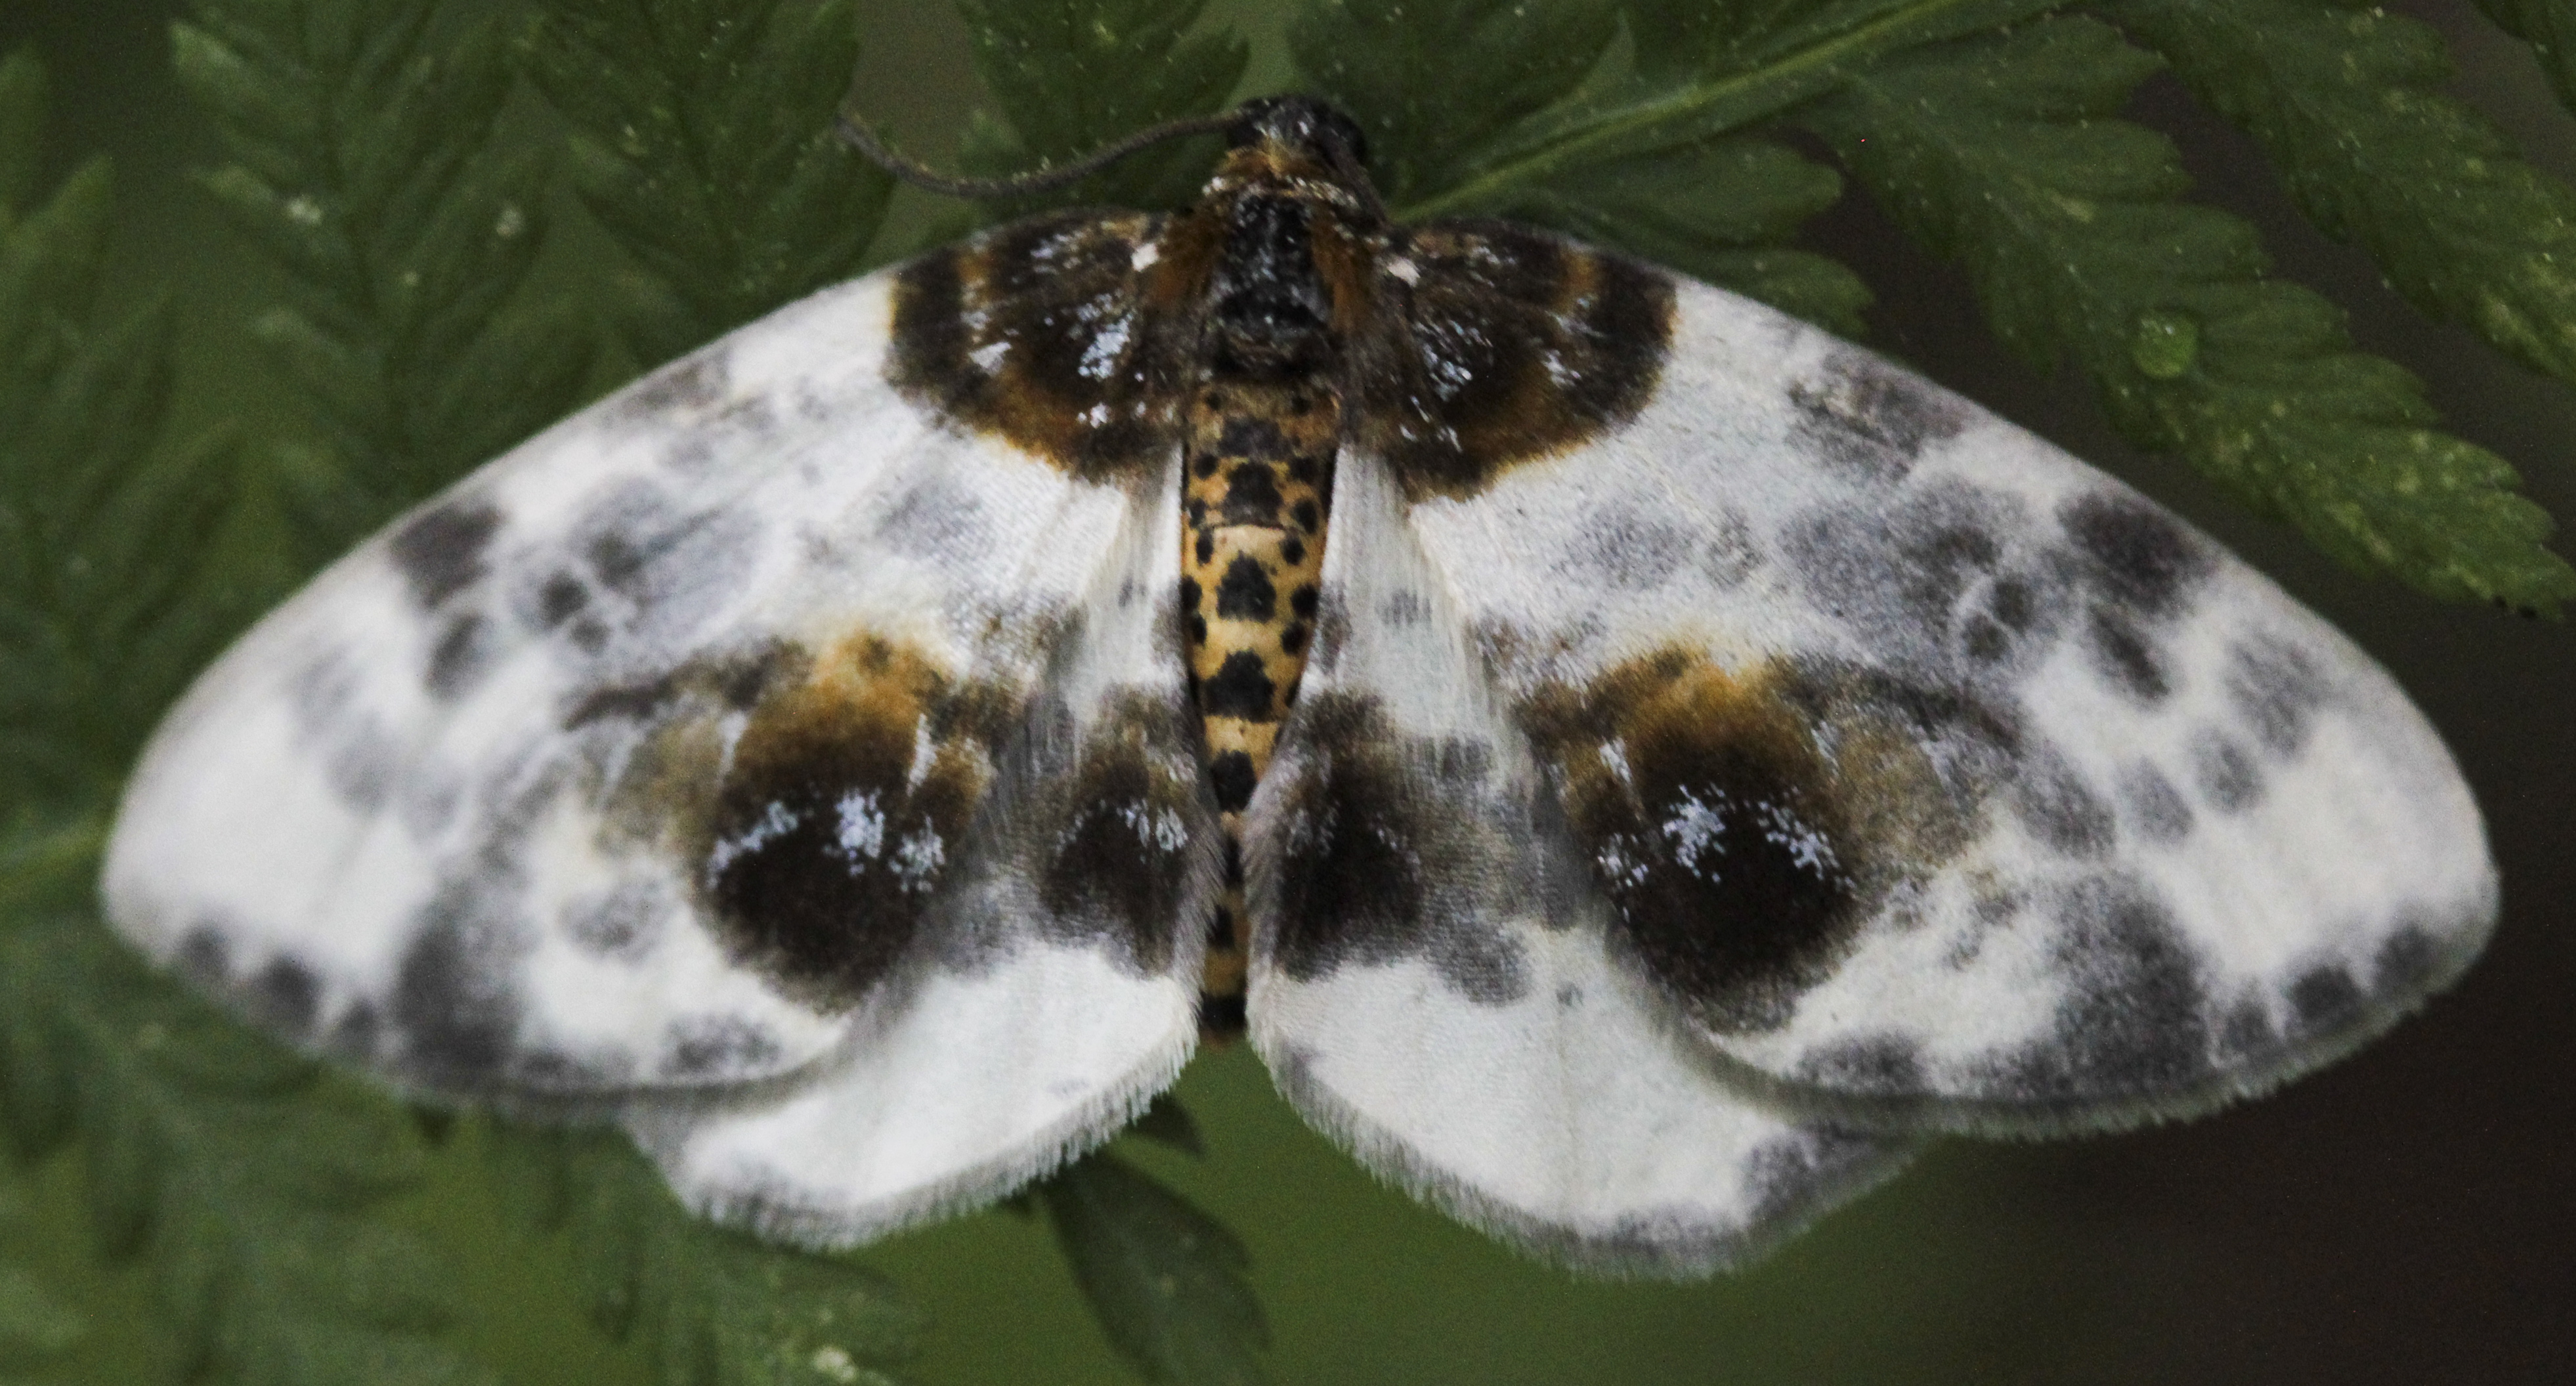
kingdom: Animalia
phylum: Arthropoda
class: Insecta
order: Lepidoptera
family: Geometridae
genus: Abraxas
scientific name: Abraxas sylvata
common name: Clouded magpie
